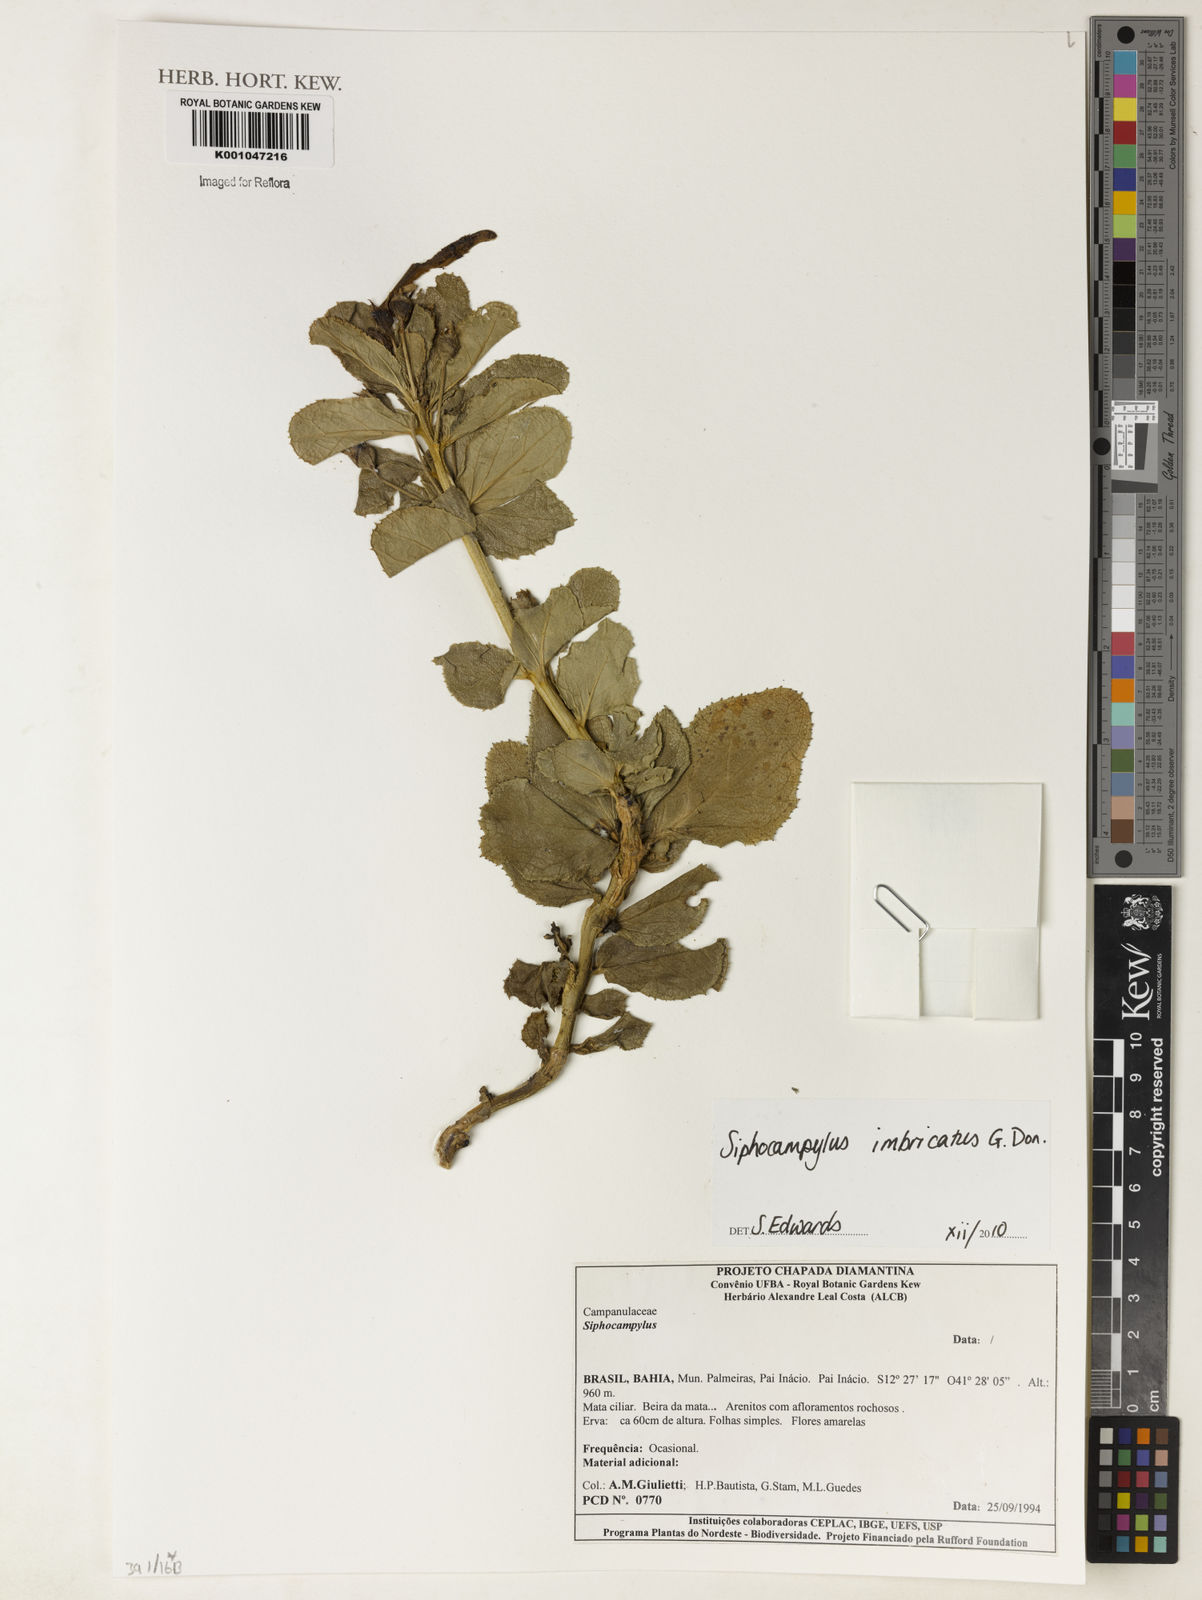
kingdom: Plantae
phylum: Tracheophyta
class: Magnoliopsida
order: Asterales
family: Campanulaceae
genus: Siphocampylus
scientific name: Siphocampylus imbricatus
